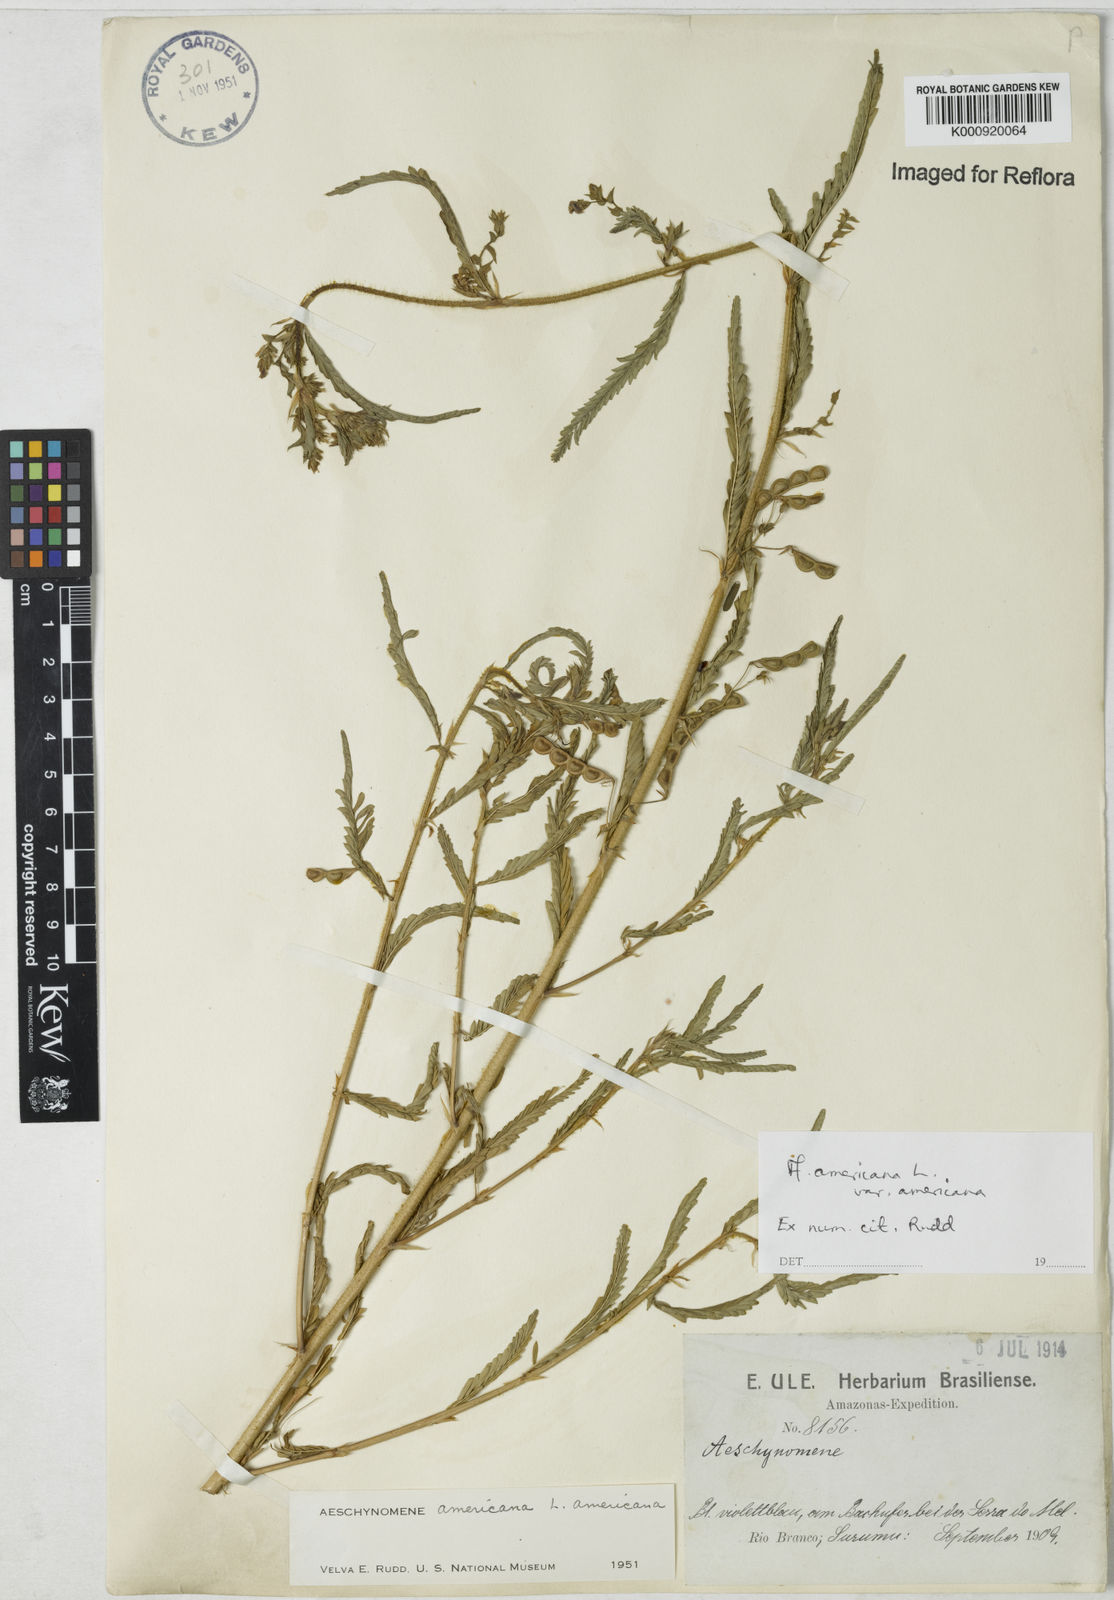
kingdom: Plantae
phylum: Tracheophyta
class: Magnoliopsida
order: Fabales
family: Fabaceae
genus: Aeschynomene
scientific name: Aeschynomene americana
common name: Joint-vetch
